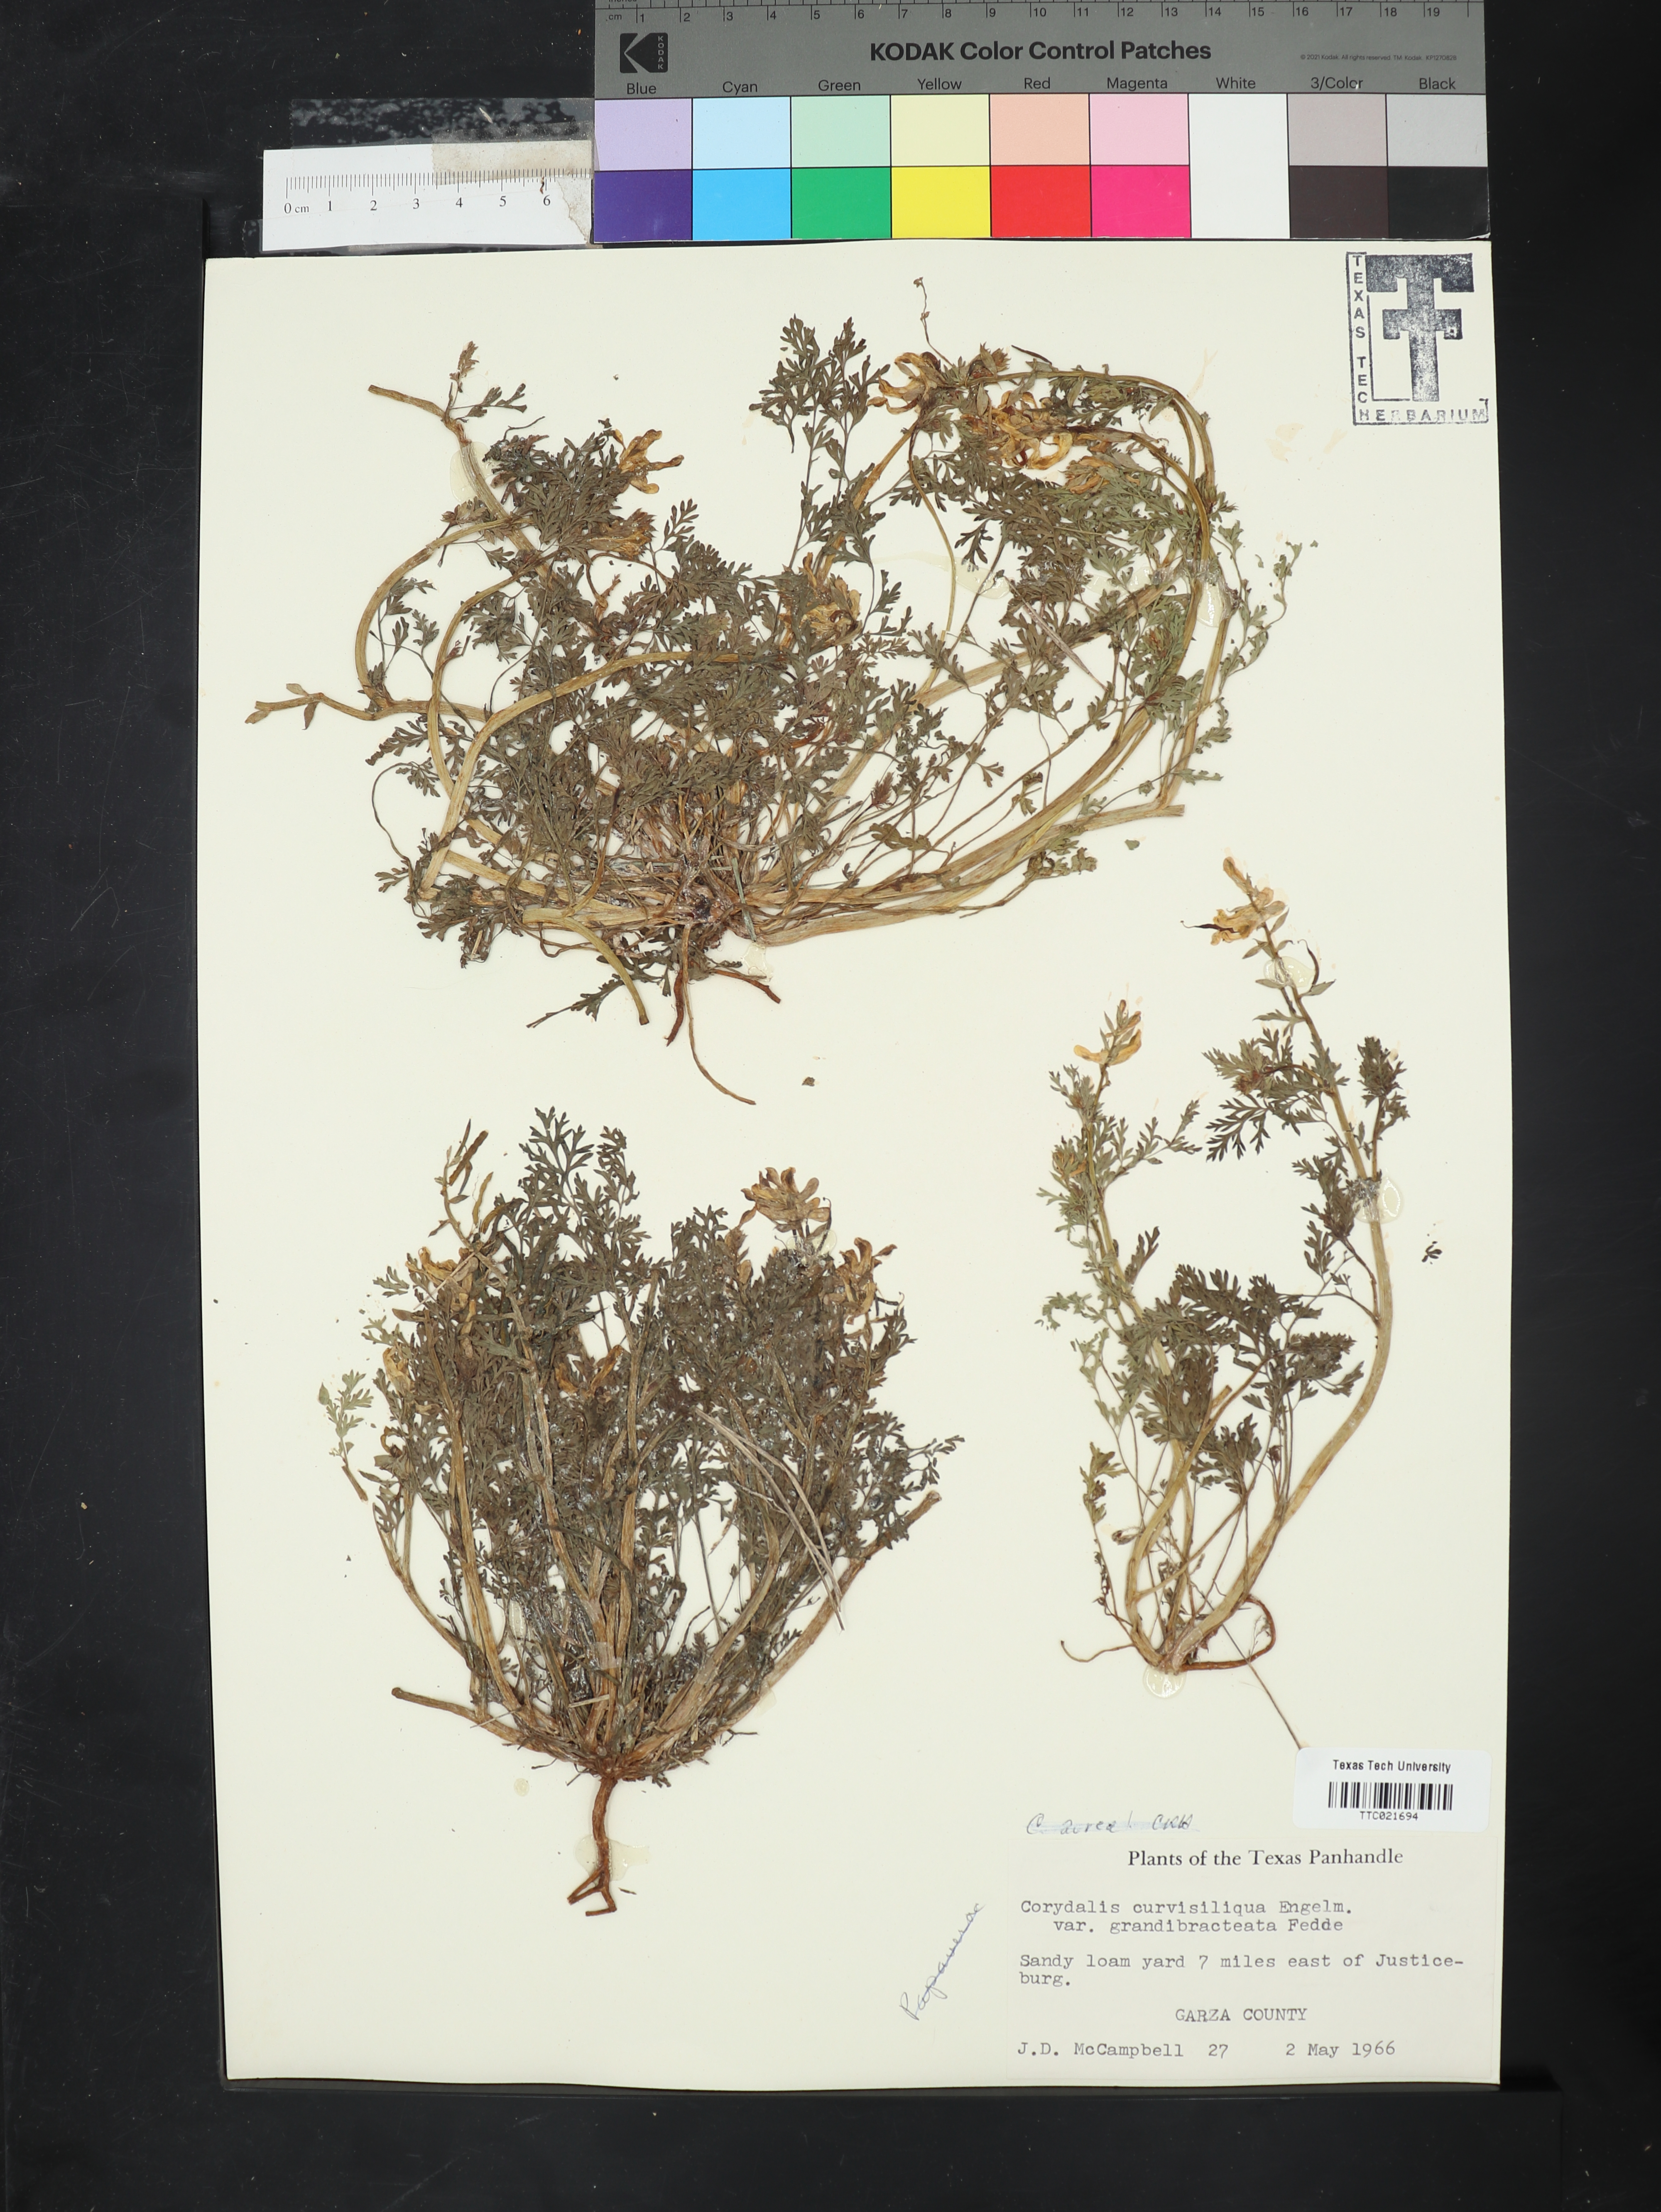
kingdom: Plantae
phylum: Tracheophyta
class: Magnoliopsida
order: Ranunculales
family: Papaveraceae
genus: Corydalis
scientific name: Corydalis curvisiliqua
